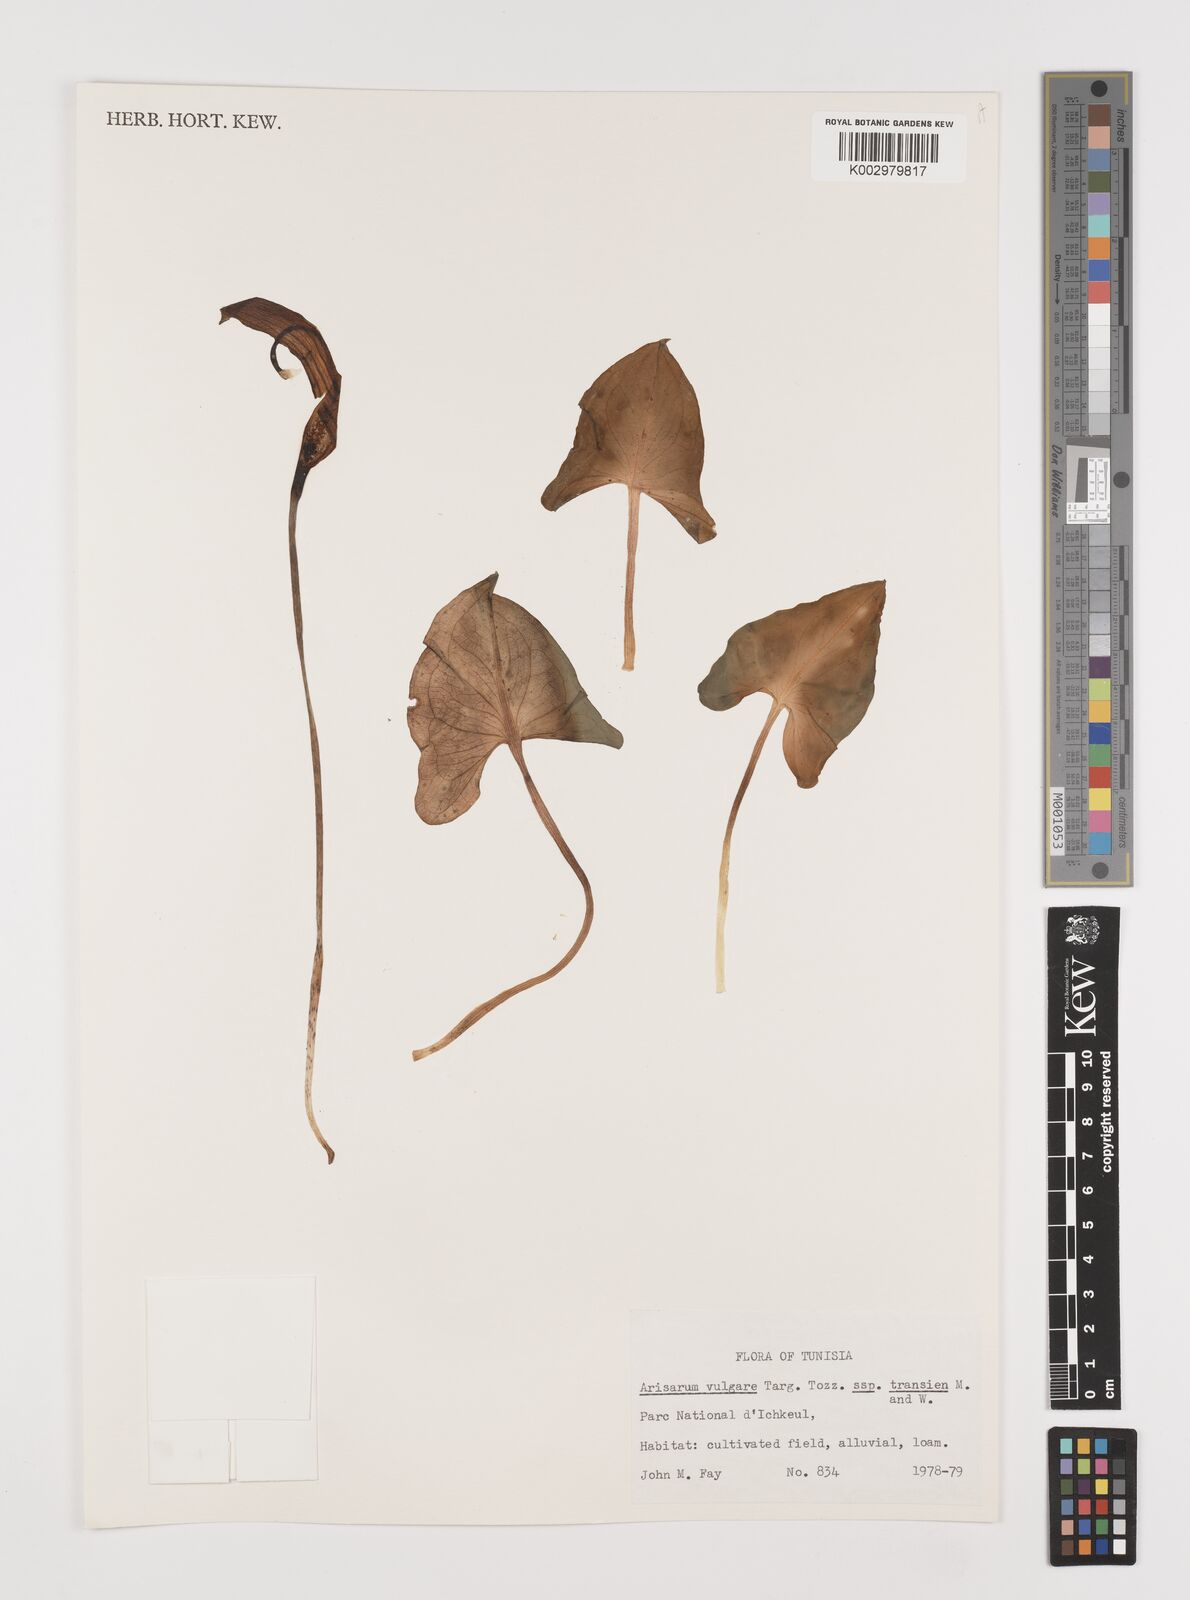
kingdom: Plantae
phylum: Tracheophyta
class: Liliopsida
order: Alismatales
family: Araceae
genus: Arisarum
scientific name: Arisarum vulgare
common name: Common arisarum
